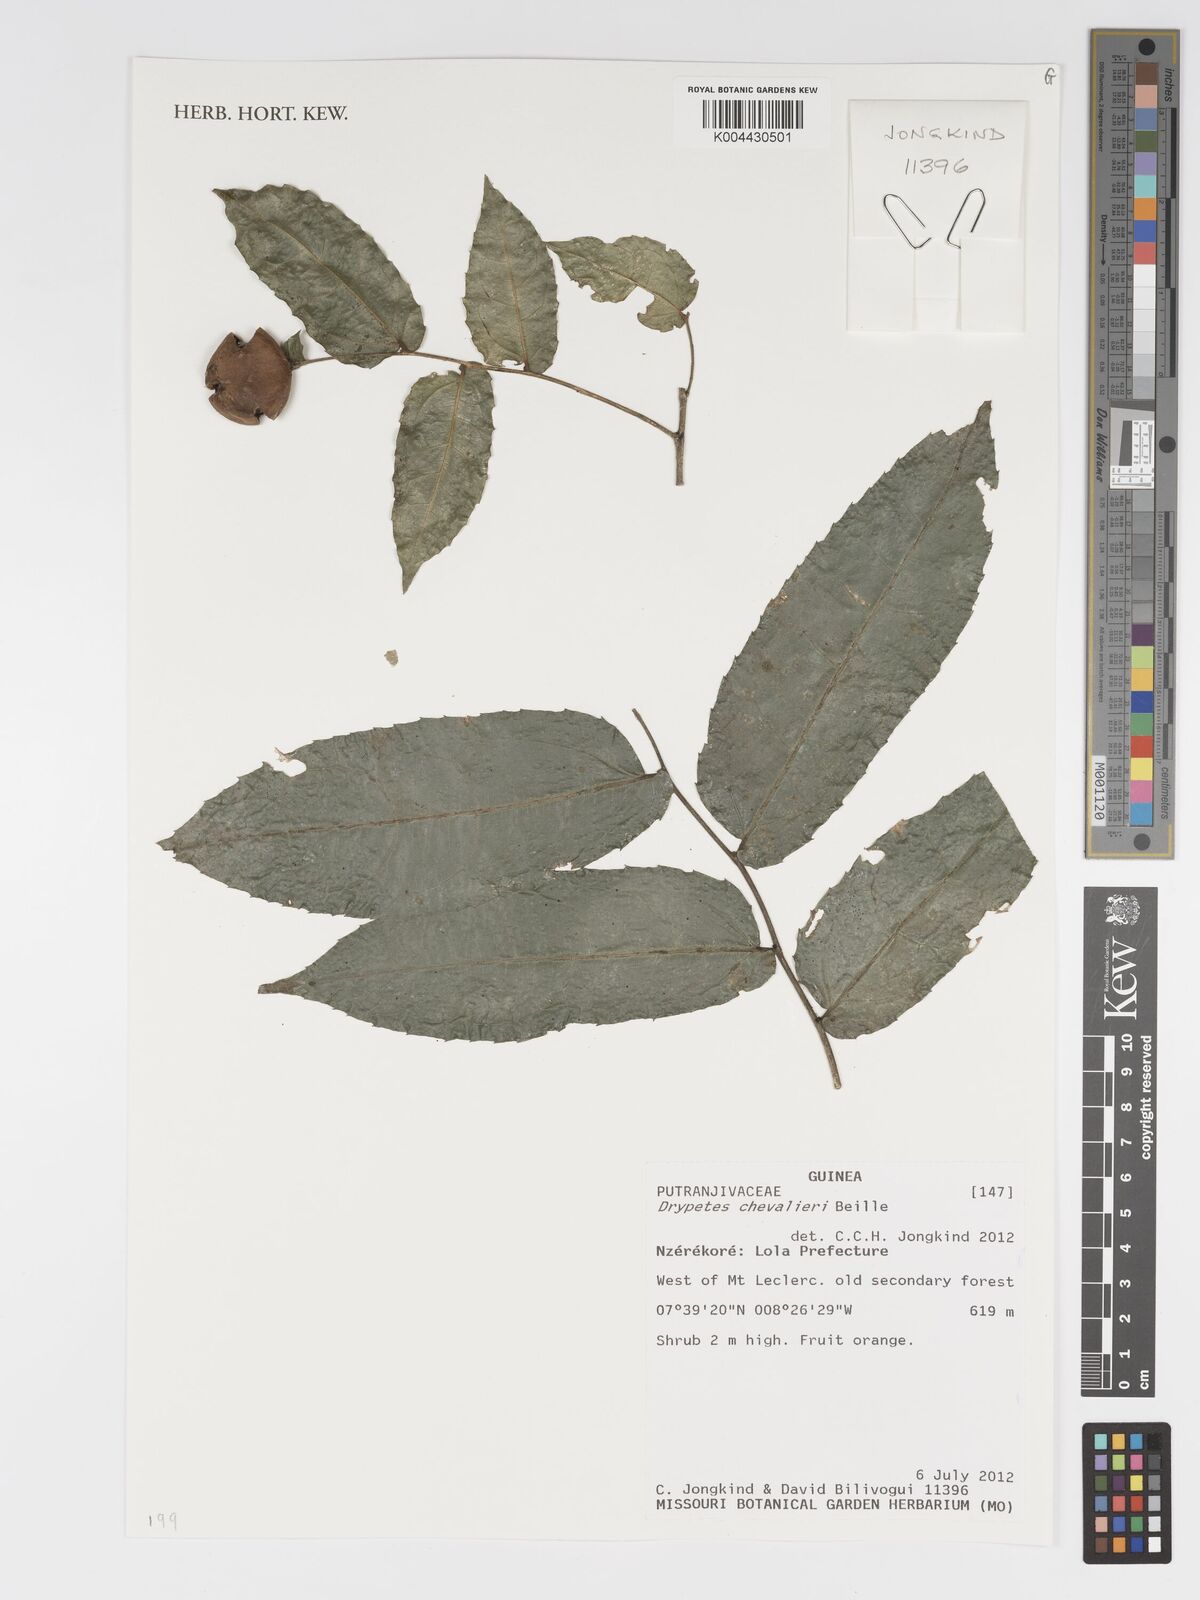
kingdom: Plantae
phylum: Tracheophyta
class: Magnoliopsida
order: Malpighiales
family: Putranjivaceae
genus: Drypetes
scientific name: Drypetes chevalieri
